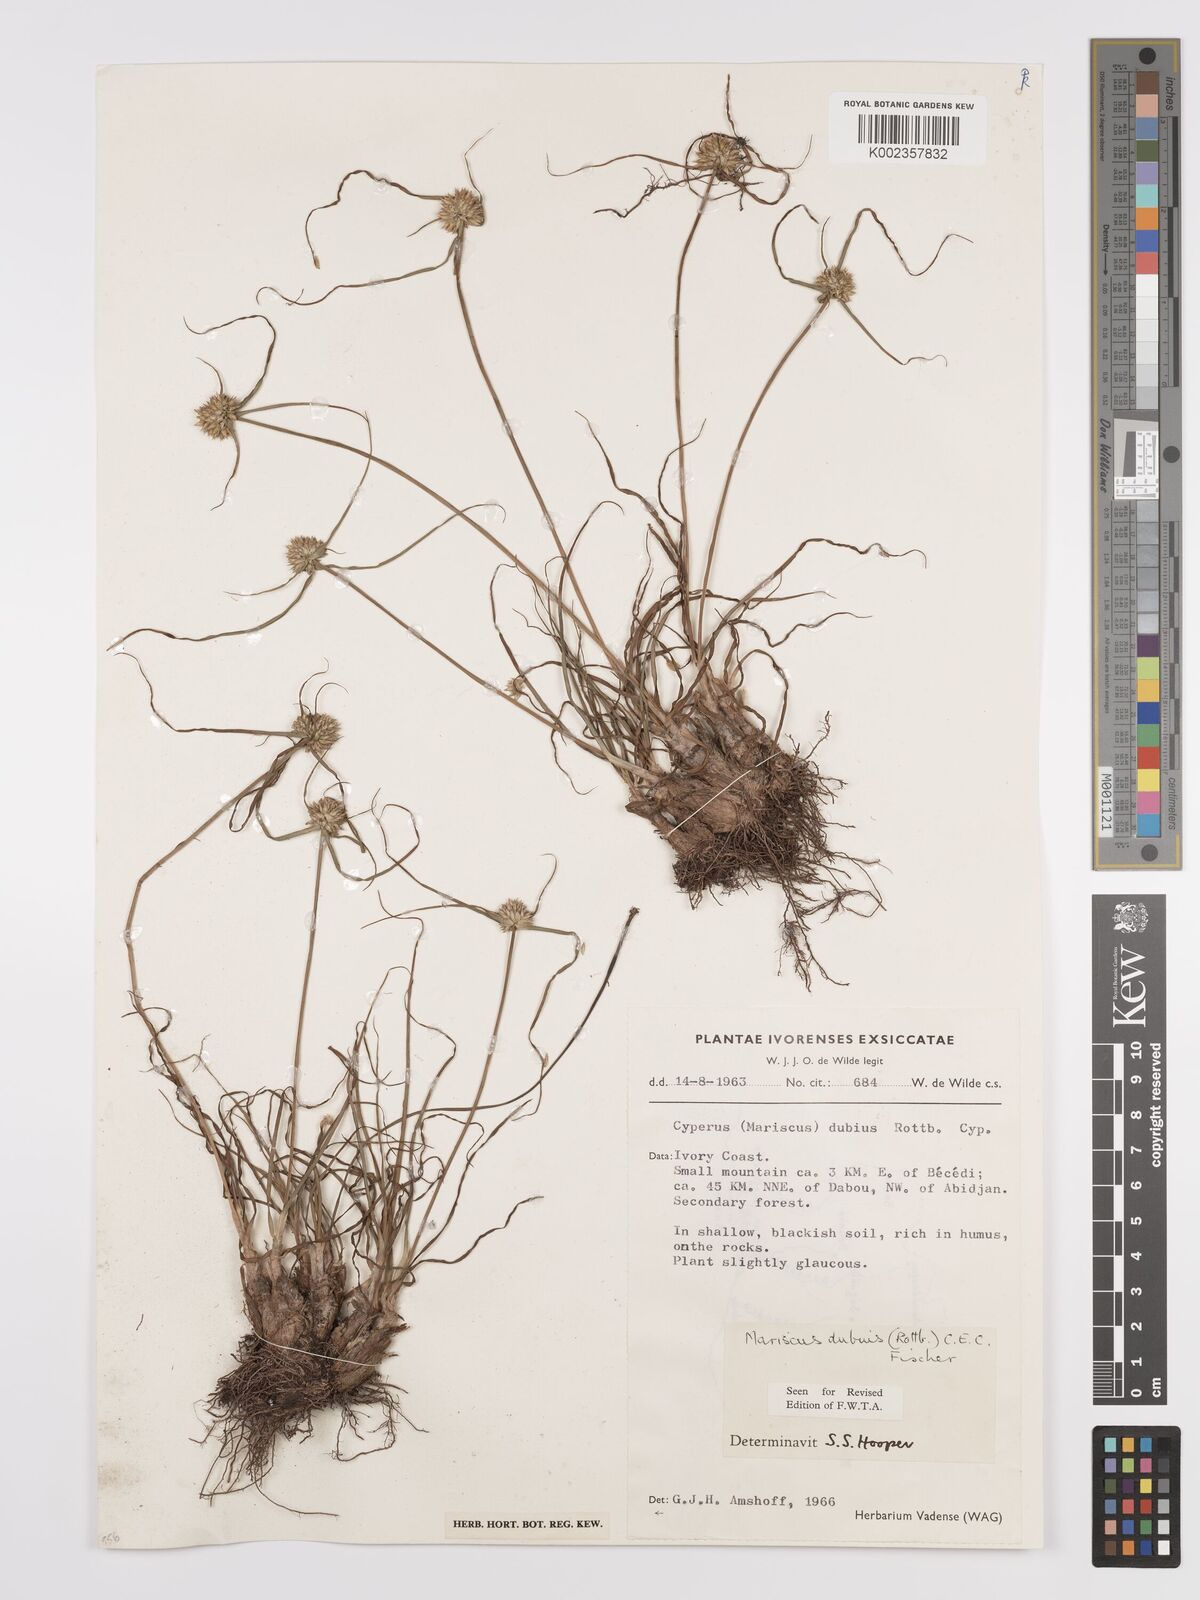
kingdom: Plantae
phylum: Tracheophyta
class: Liliopsida
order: Poales
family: Cyperaceae
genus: Cyperus
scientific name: Cyperus dubius
